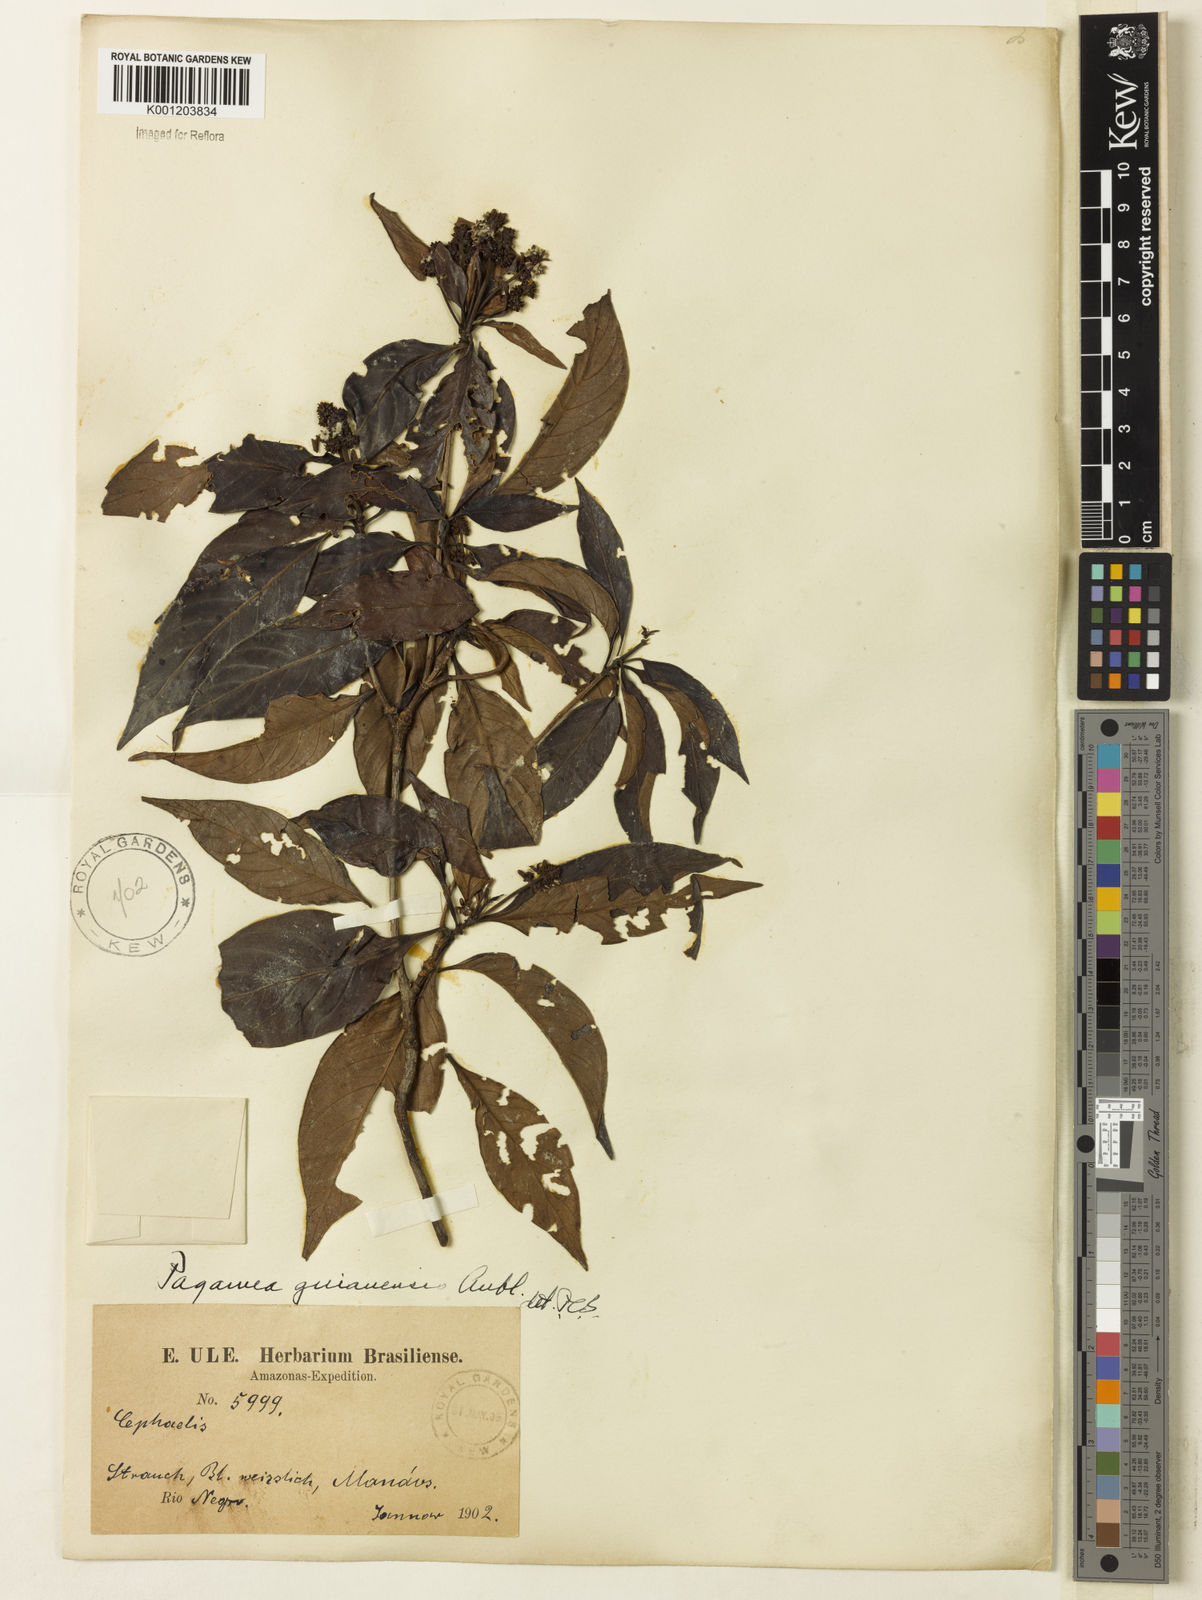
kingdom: Plantae
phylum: Tracheophyta
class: Magnoliopsida
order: Gentianales
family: Rubiaceae
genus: Pagamea
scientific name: Pagamea guianensis
